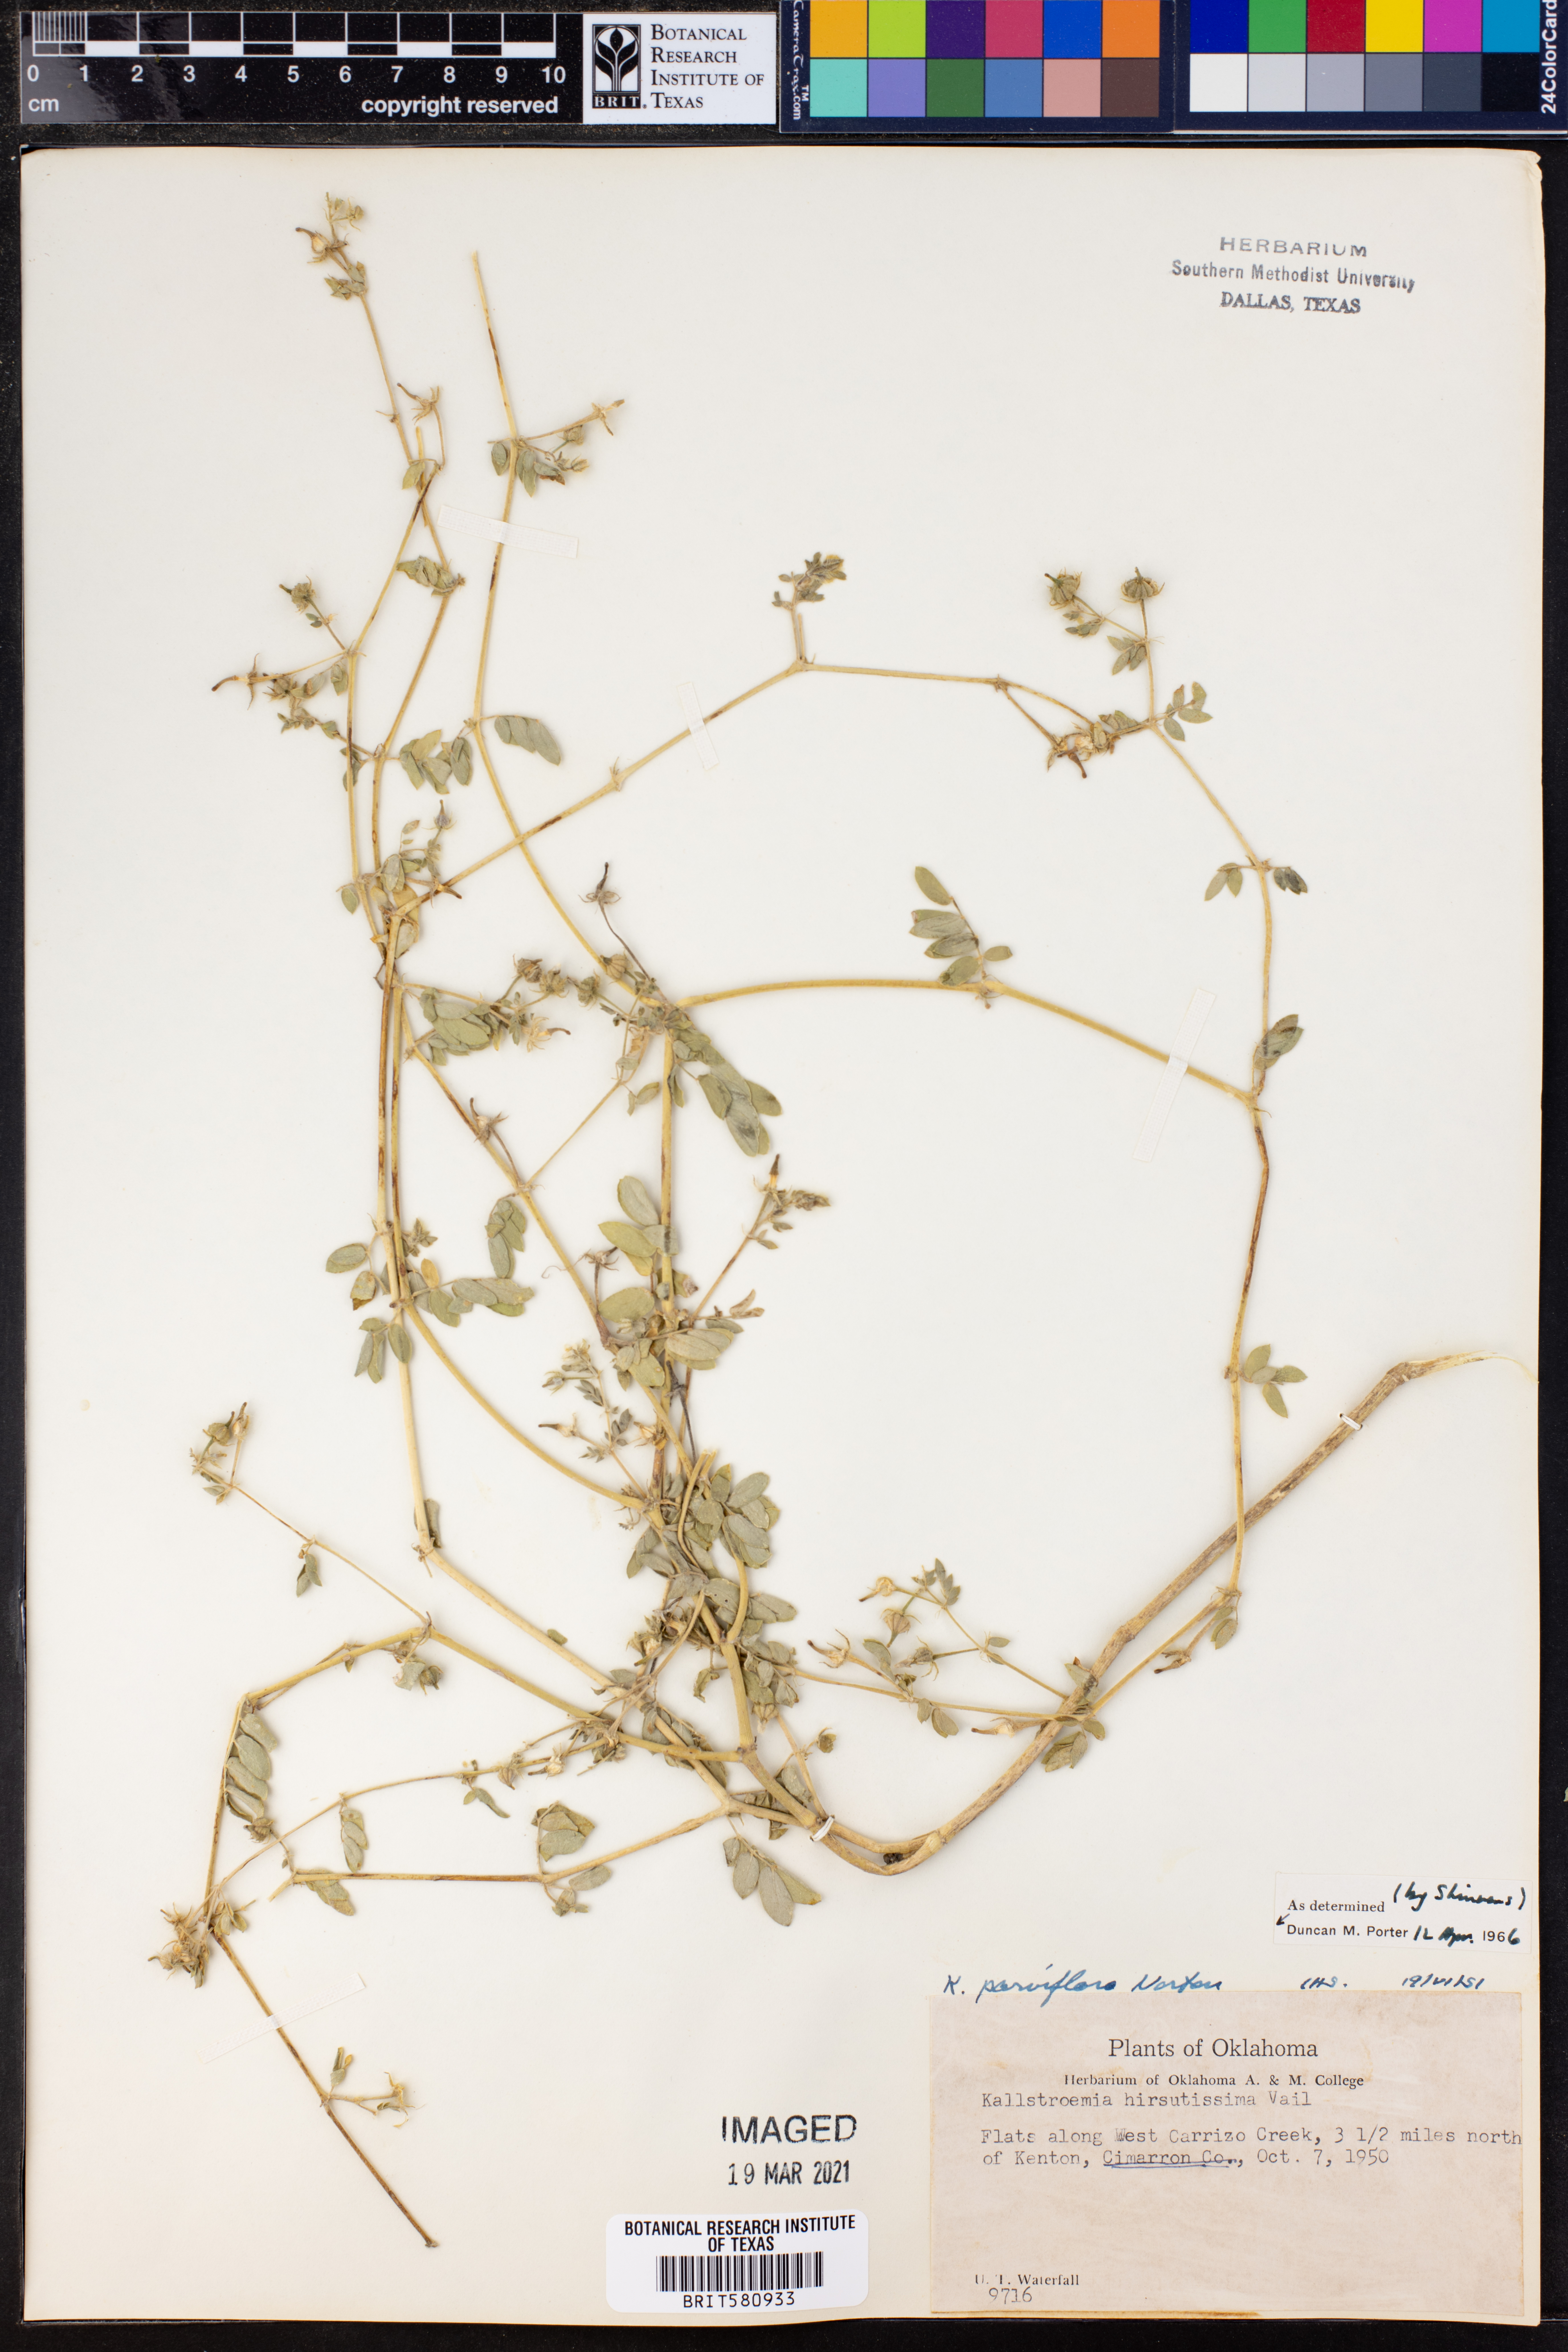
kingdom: Plantae
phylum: Tracheophyta
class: Magnoliopsida
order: Zygophyllales
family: Zygophyllaceae
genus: Kallstroemia
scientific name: Kallstroemia parviflora
